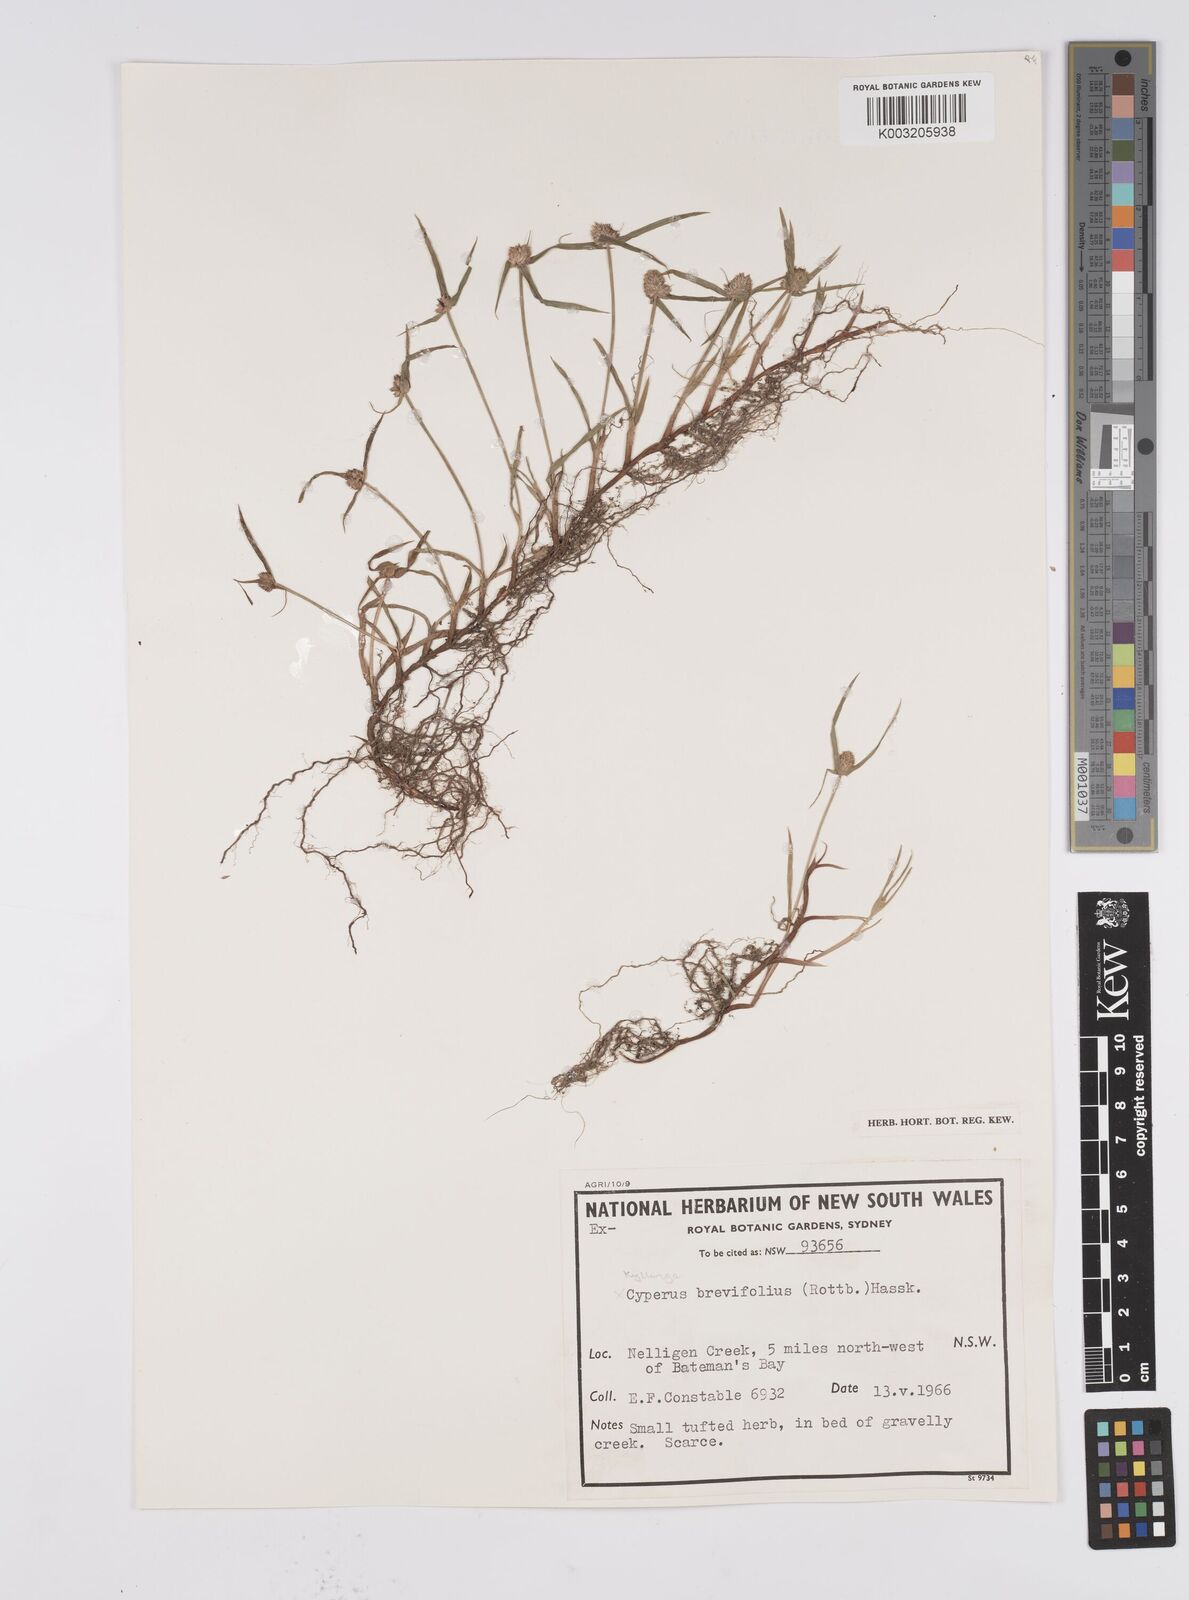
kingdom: Plantae
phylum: Tracheophyta
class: Liliopsida
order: Poales
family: Cyperaceae
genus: Cyperus
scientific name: Cyperus brevifolius
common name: Globe kyllinga
